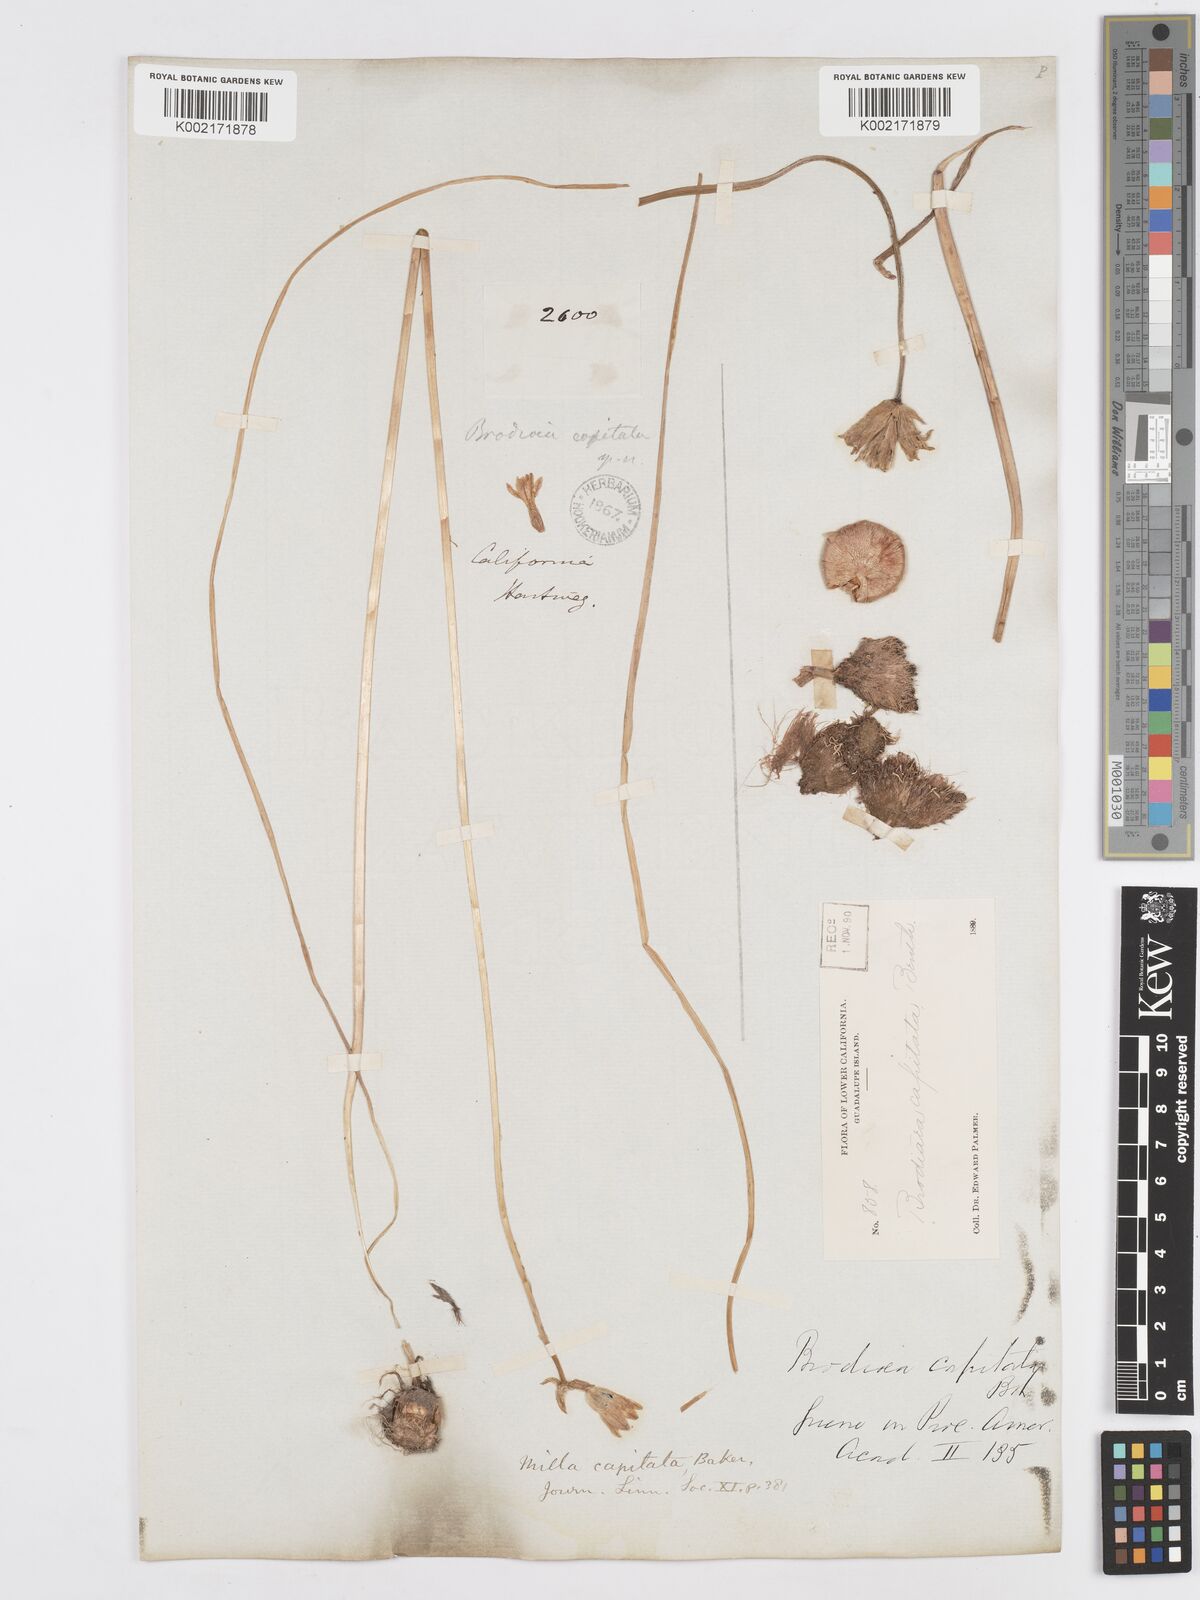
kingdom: Plantae
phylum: Tracheophyta
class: Liliopsida
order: Asparagales
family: Asparagaceae
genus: Dichelostemma
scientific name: Dichelostemma congestum
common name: Fork-tooth ookow
